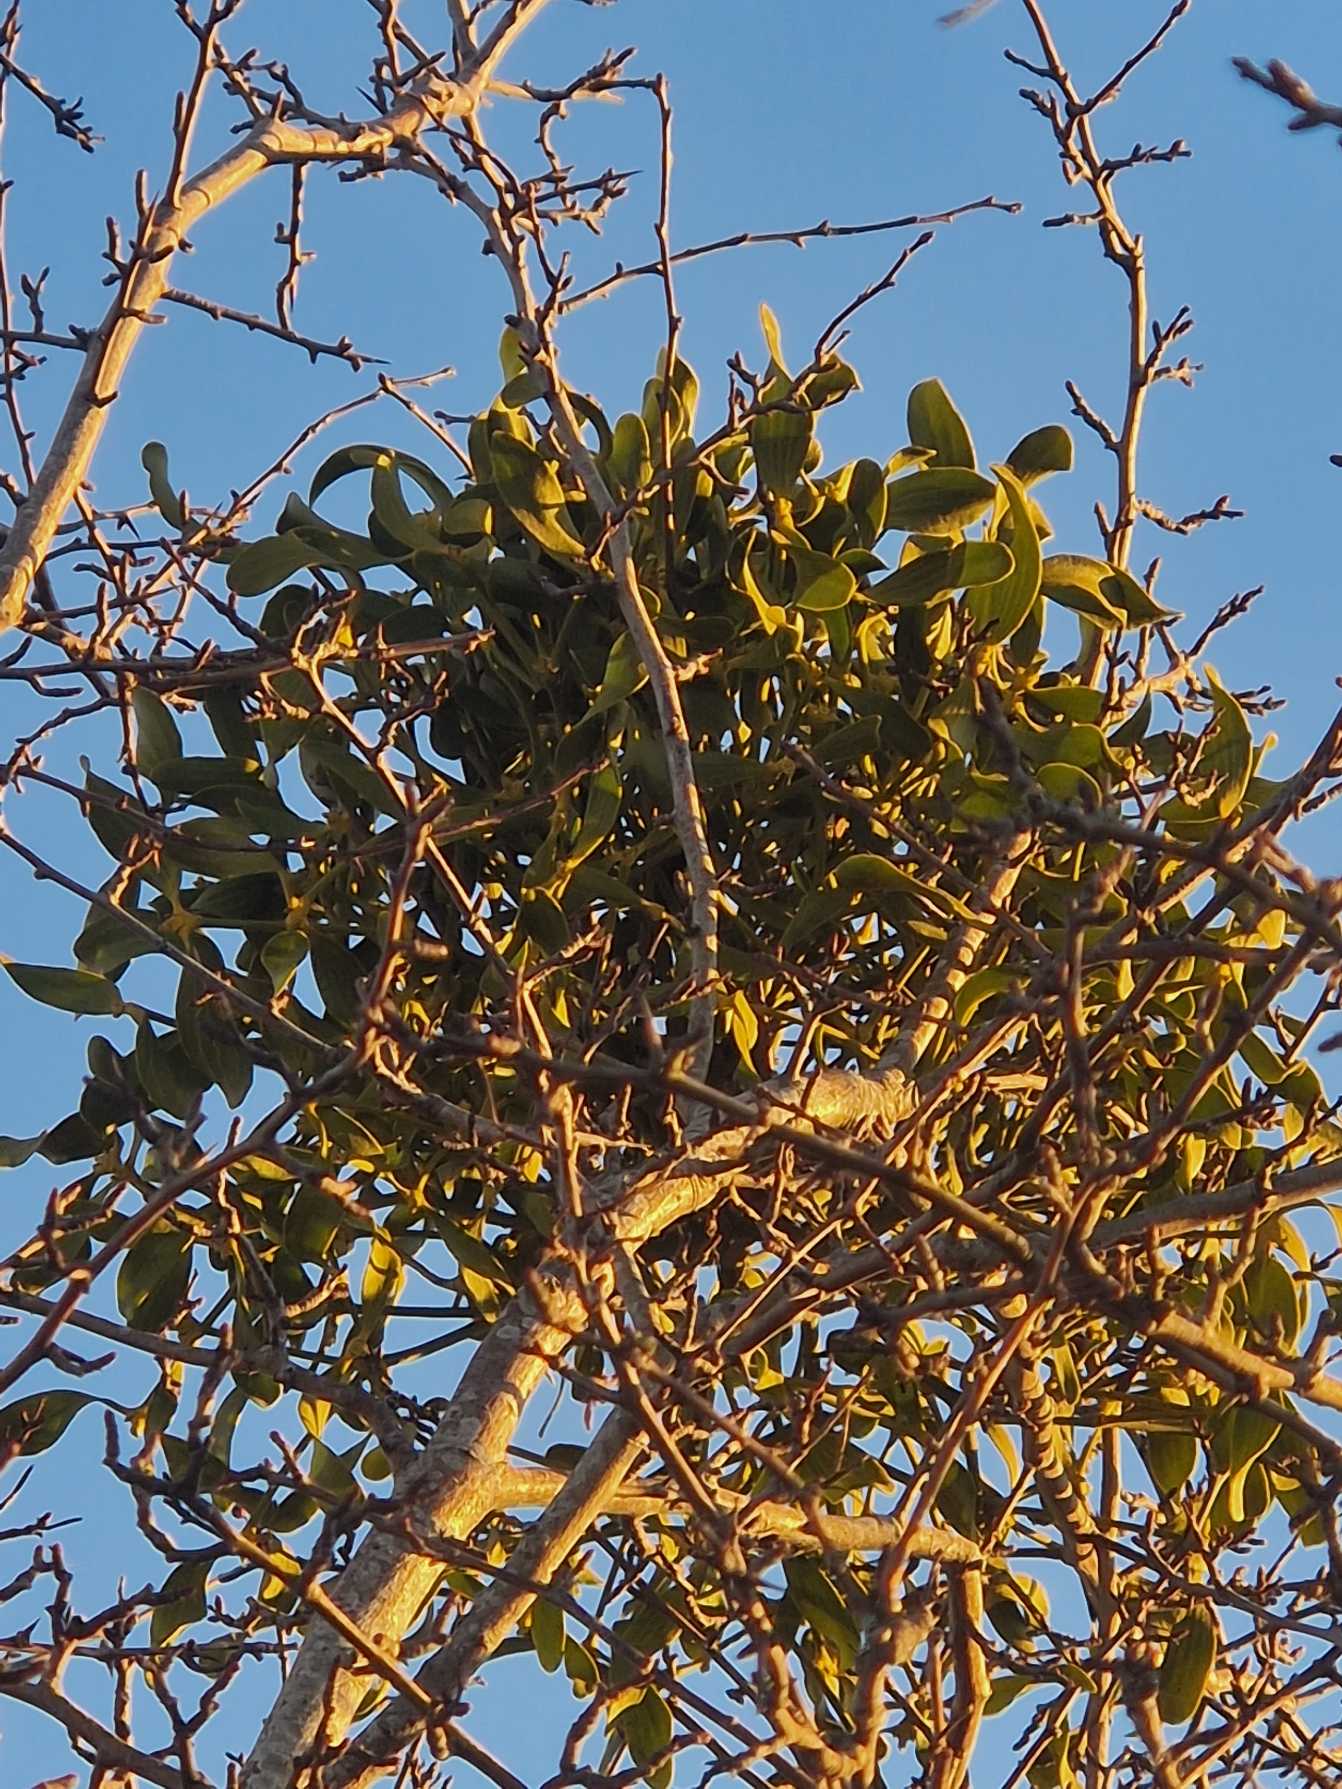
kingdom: Plantae
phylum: Tracheophyta
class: Magnoliopsida
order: Santalales
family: Viscaceae
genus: Viscum
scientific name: Viscum album
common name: Mistelten
